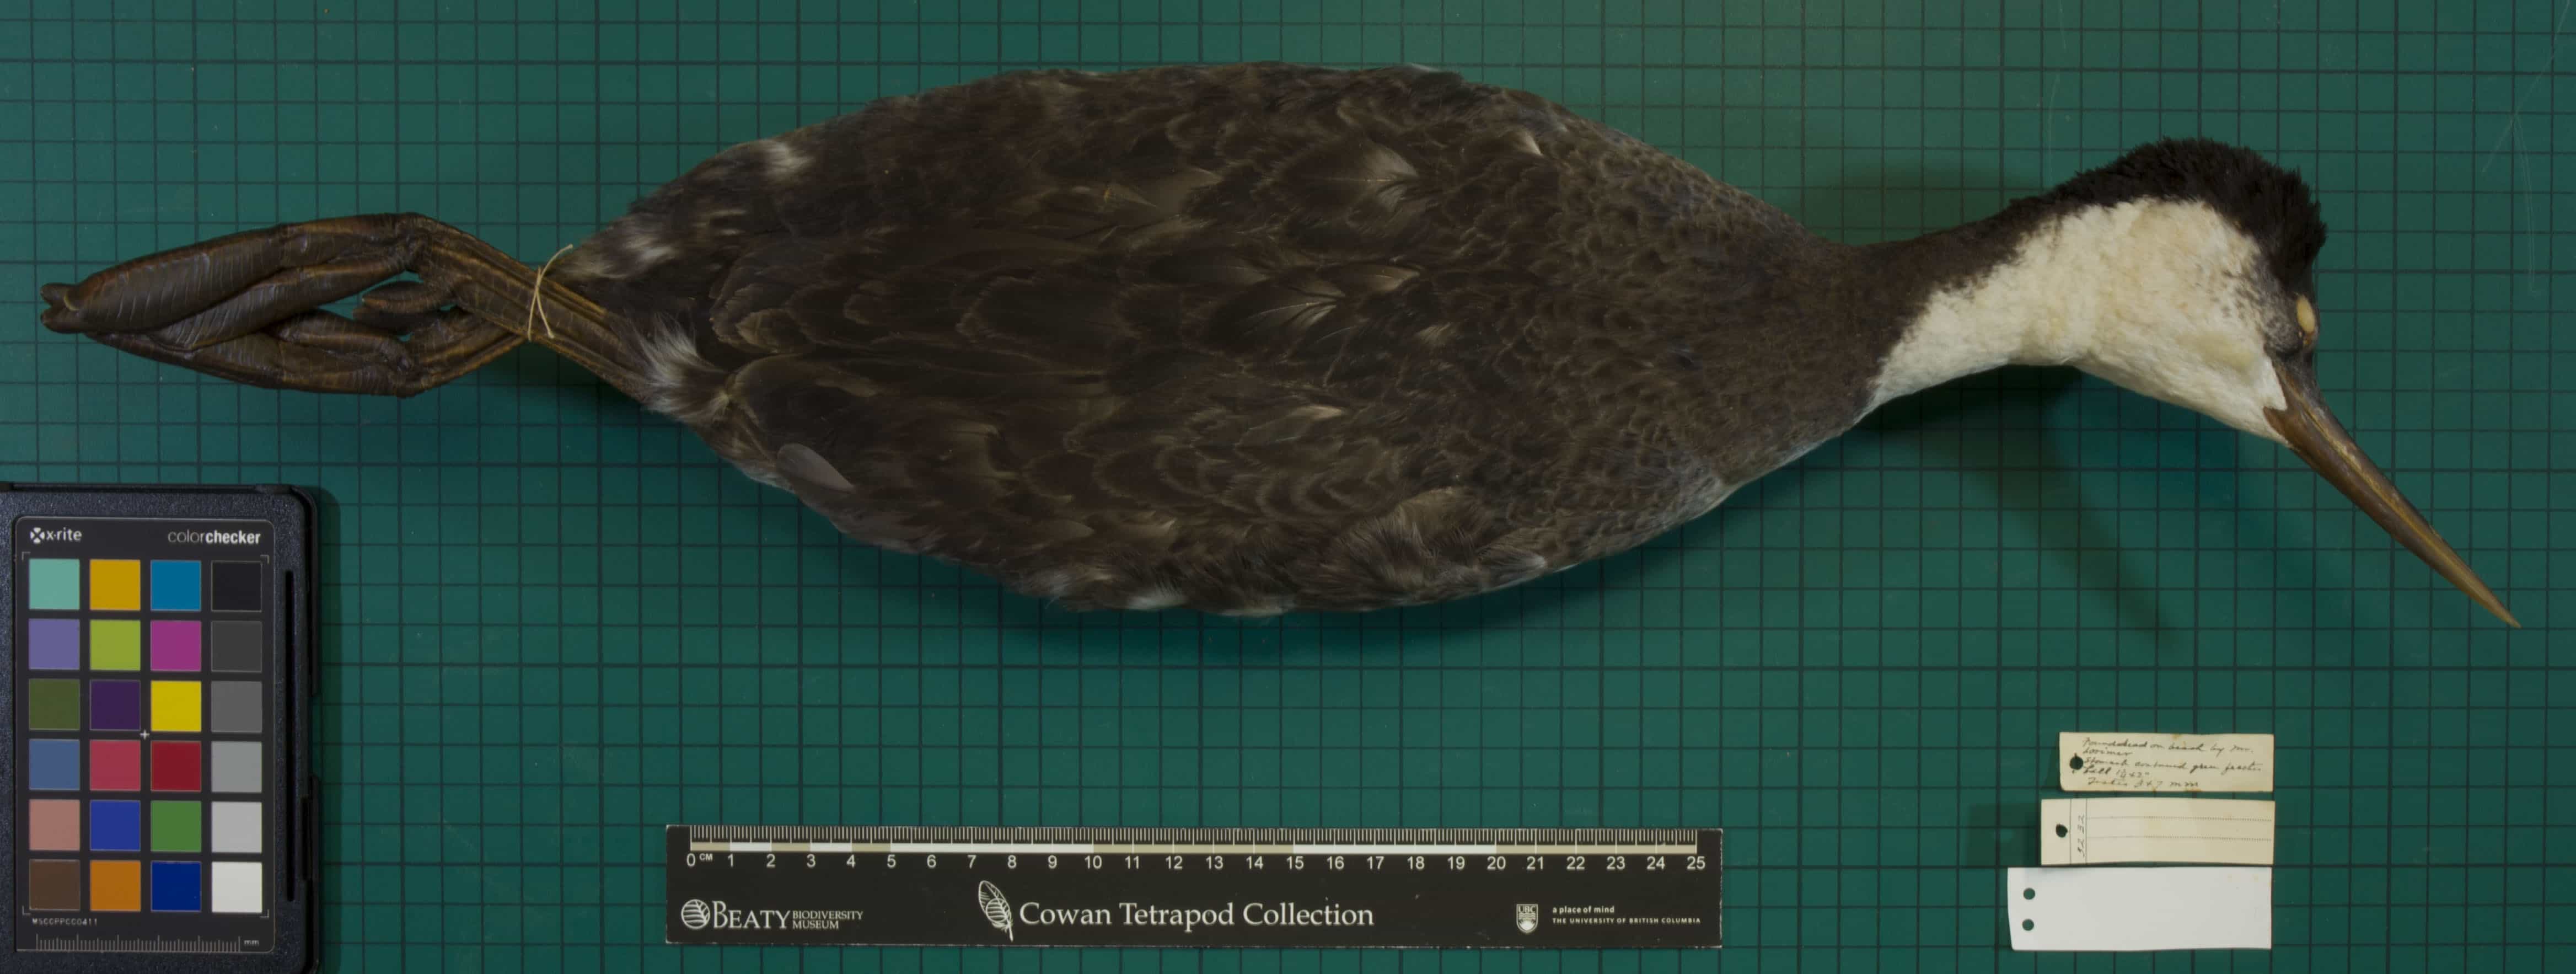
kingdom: Animalia
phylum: Chordata
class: Aves
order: Podicipediformes
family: Podicipedidae
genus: Aechmophorus
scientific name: Aechmophorus occidentalis
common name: Western Grebe
